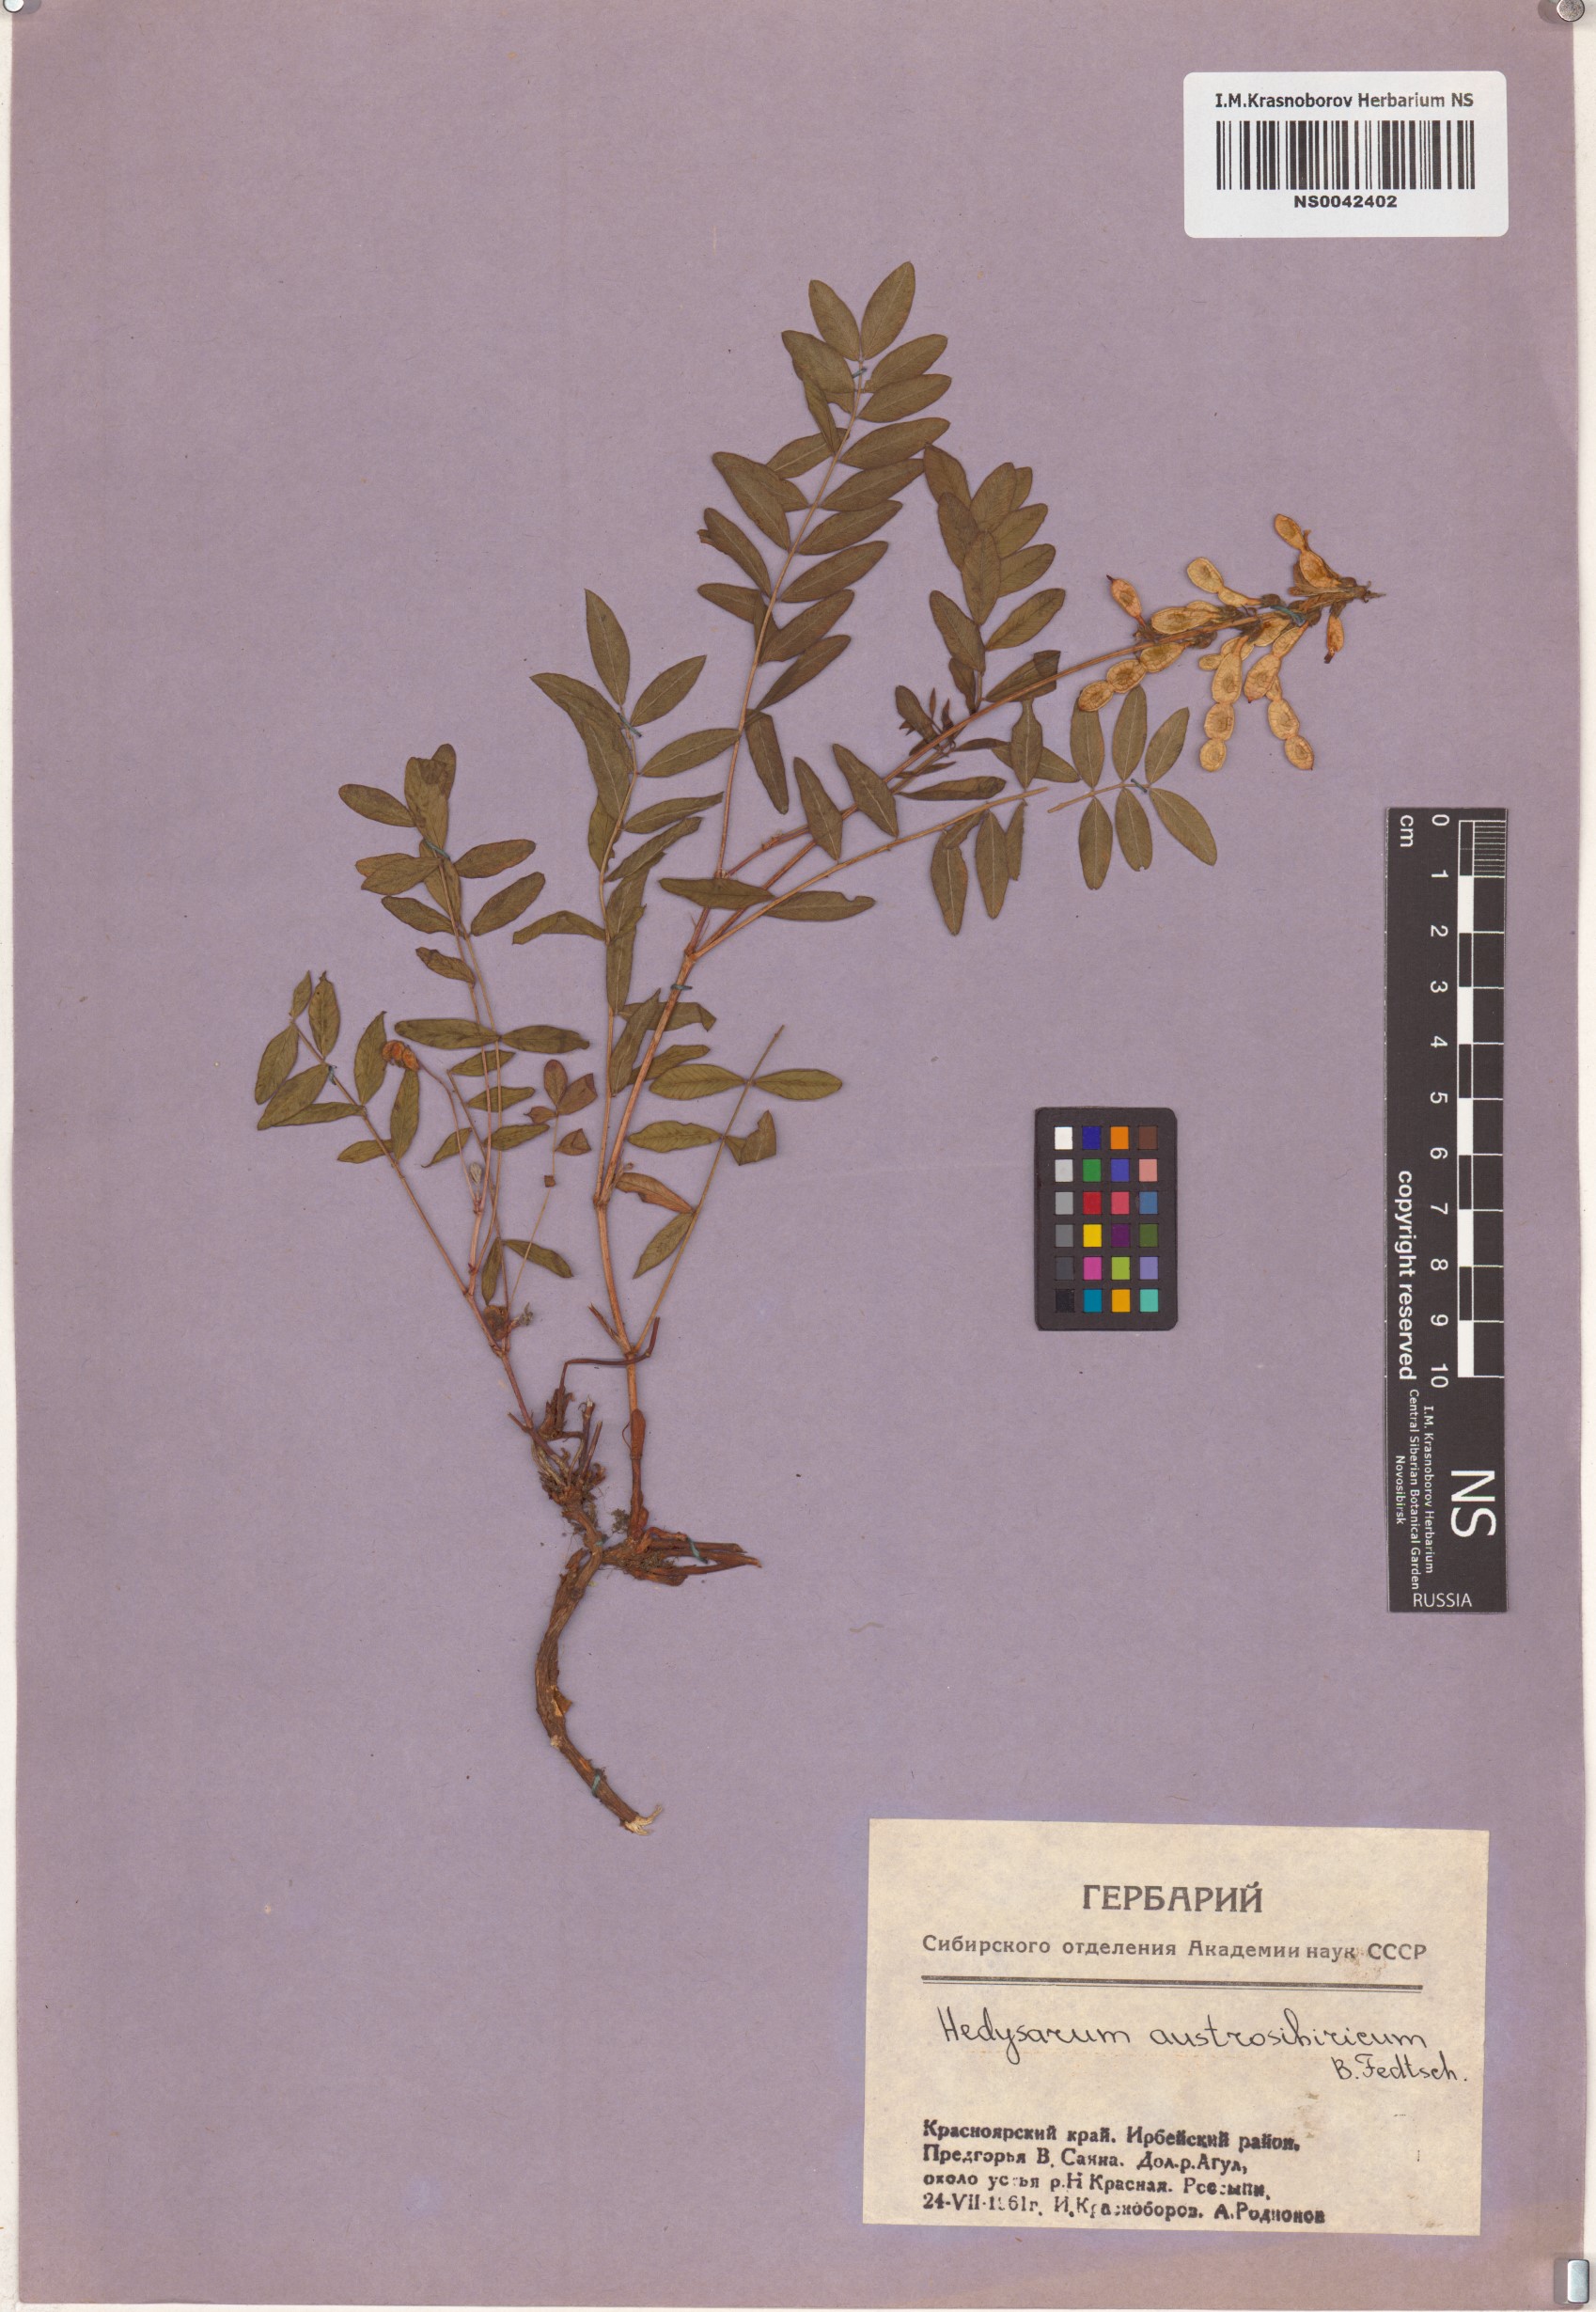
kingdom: Plantae
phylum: Tracheophyta
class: Magnoliopsida
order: Fabales
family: Fabaceae
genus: Hedysarum
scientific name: Hedysarum neglectum
